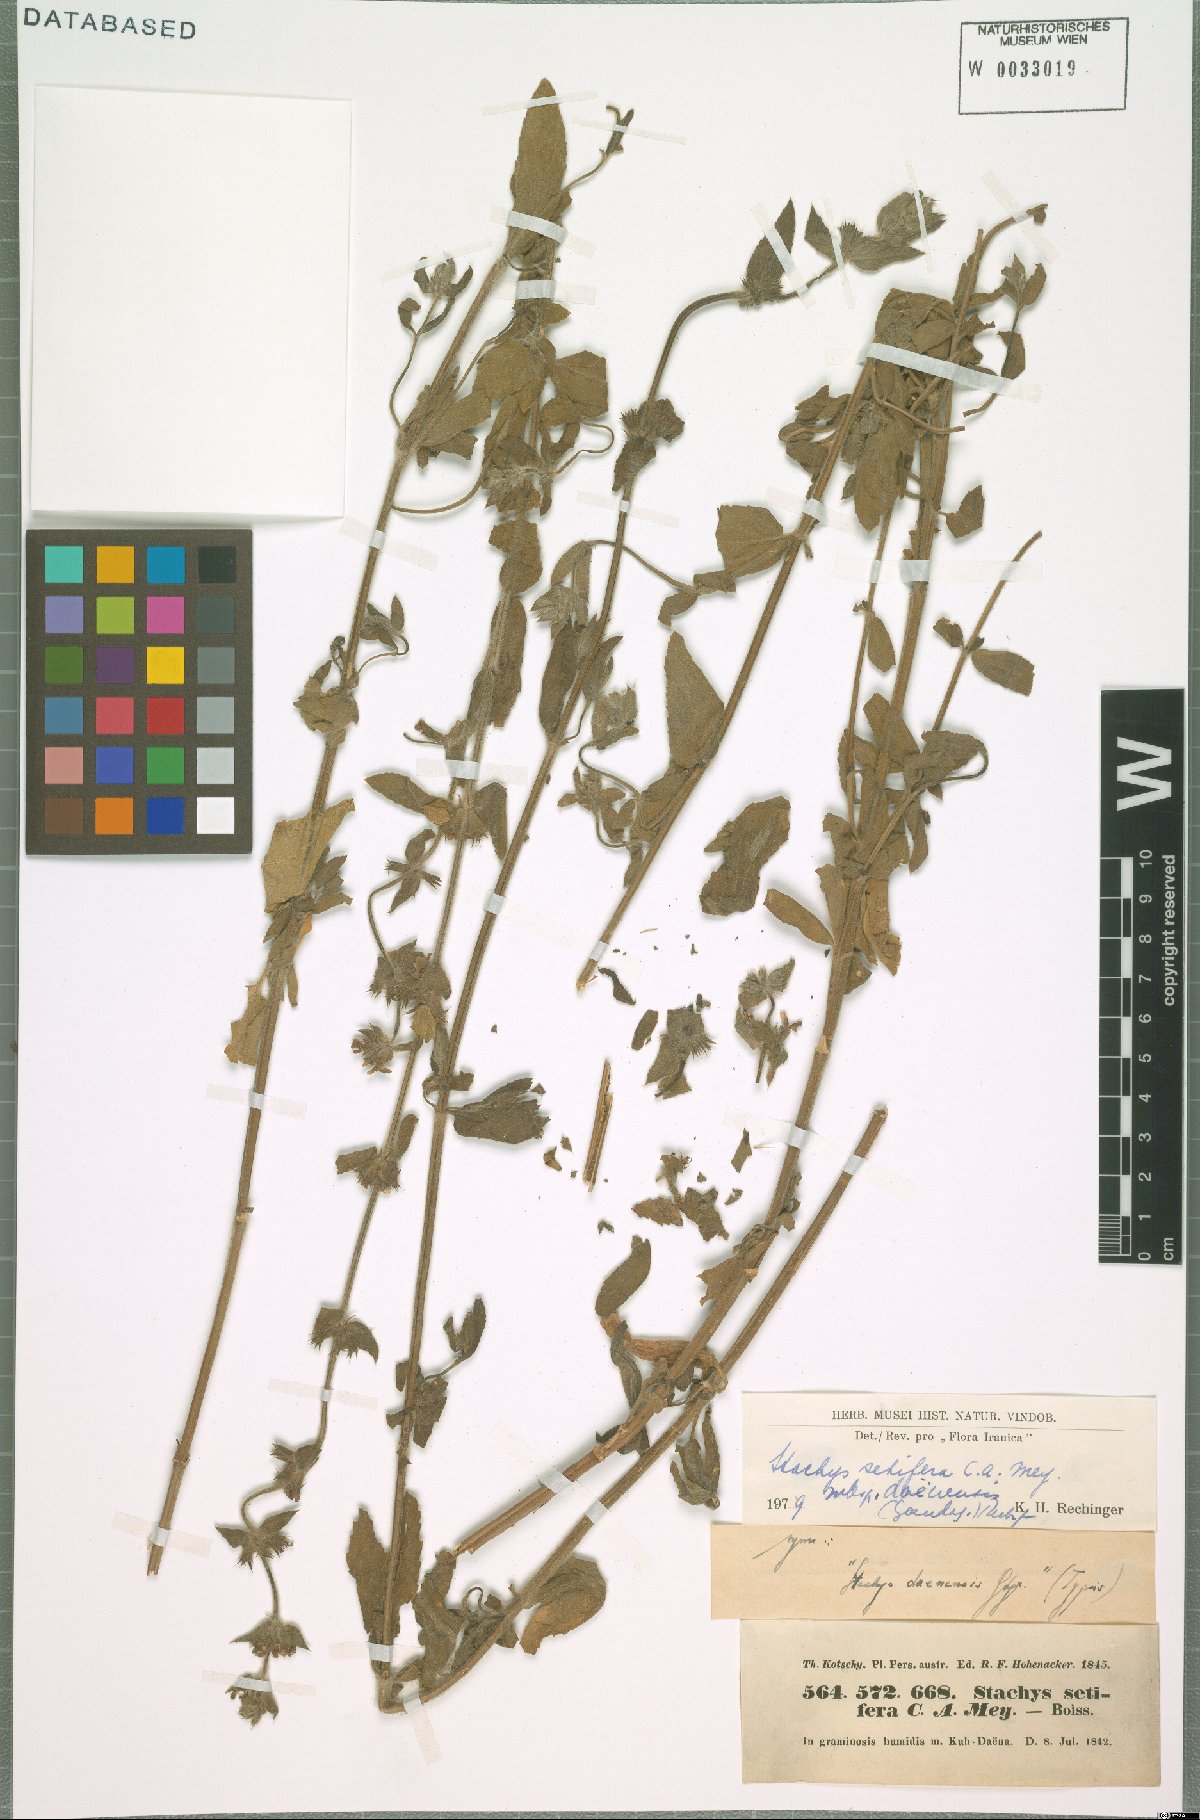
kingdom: Plantae
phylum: Tracheophyta
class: Magnoliopsida
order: Lamiales
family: Lamiaceae
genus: Stachys
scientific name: Stachys setifera
